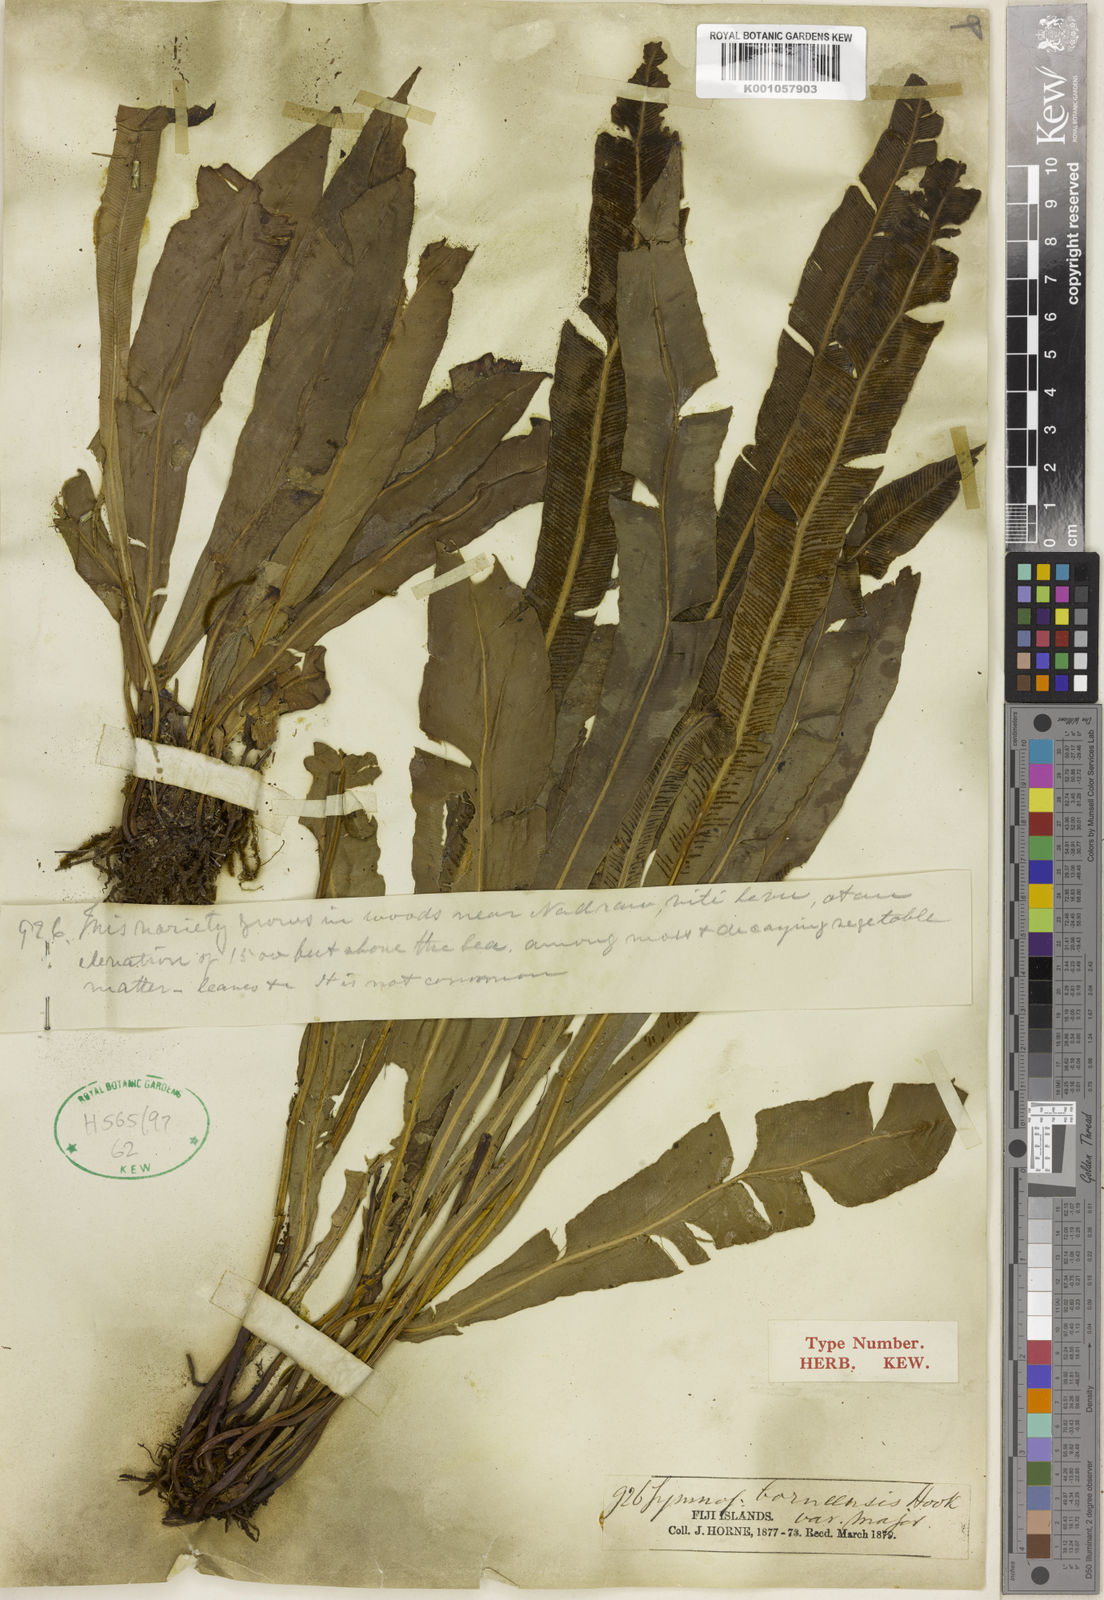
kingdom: Plantae
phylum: Tracheophyta
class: Polypodiopsida
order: Polypodiales
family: Pteridaceae
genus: Syngramma
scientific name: Syngramma borneensis
